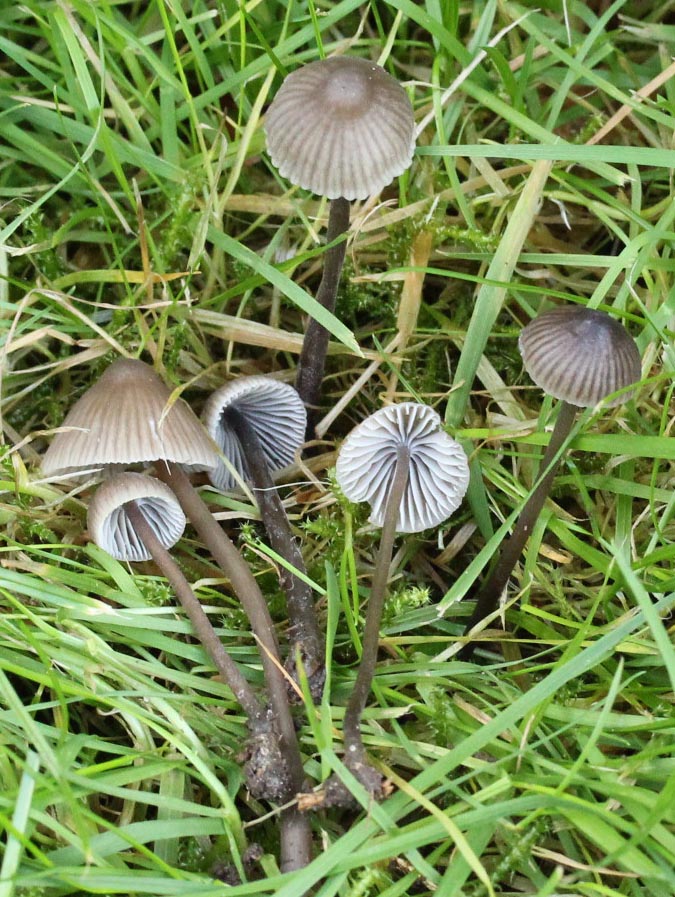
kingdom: Fungi
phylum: Basidiomycota
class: Agaricomycetes
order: Agaricales
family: Mycenaceae
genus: Mycena
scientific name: Mycena leptocephala
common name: klor-huesvamp
